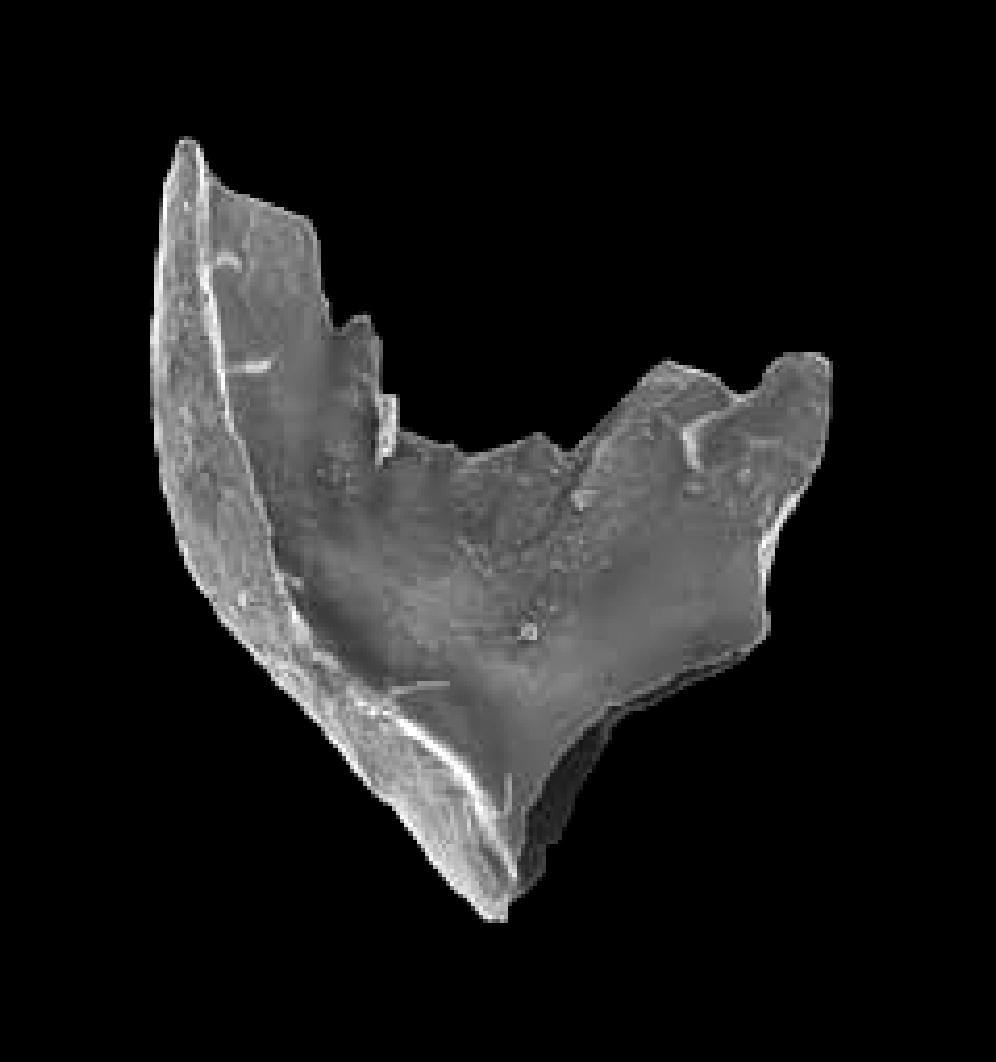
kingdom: Animalia
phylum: Chordata
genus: Periodon
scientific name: Periodon
